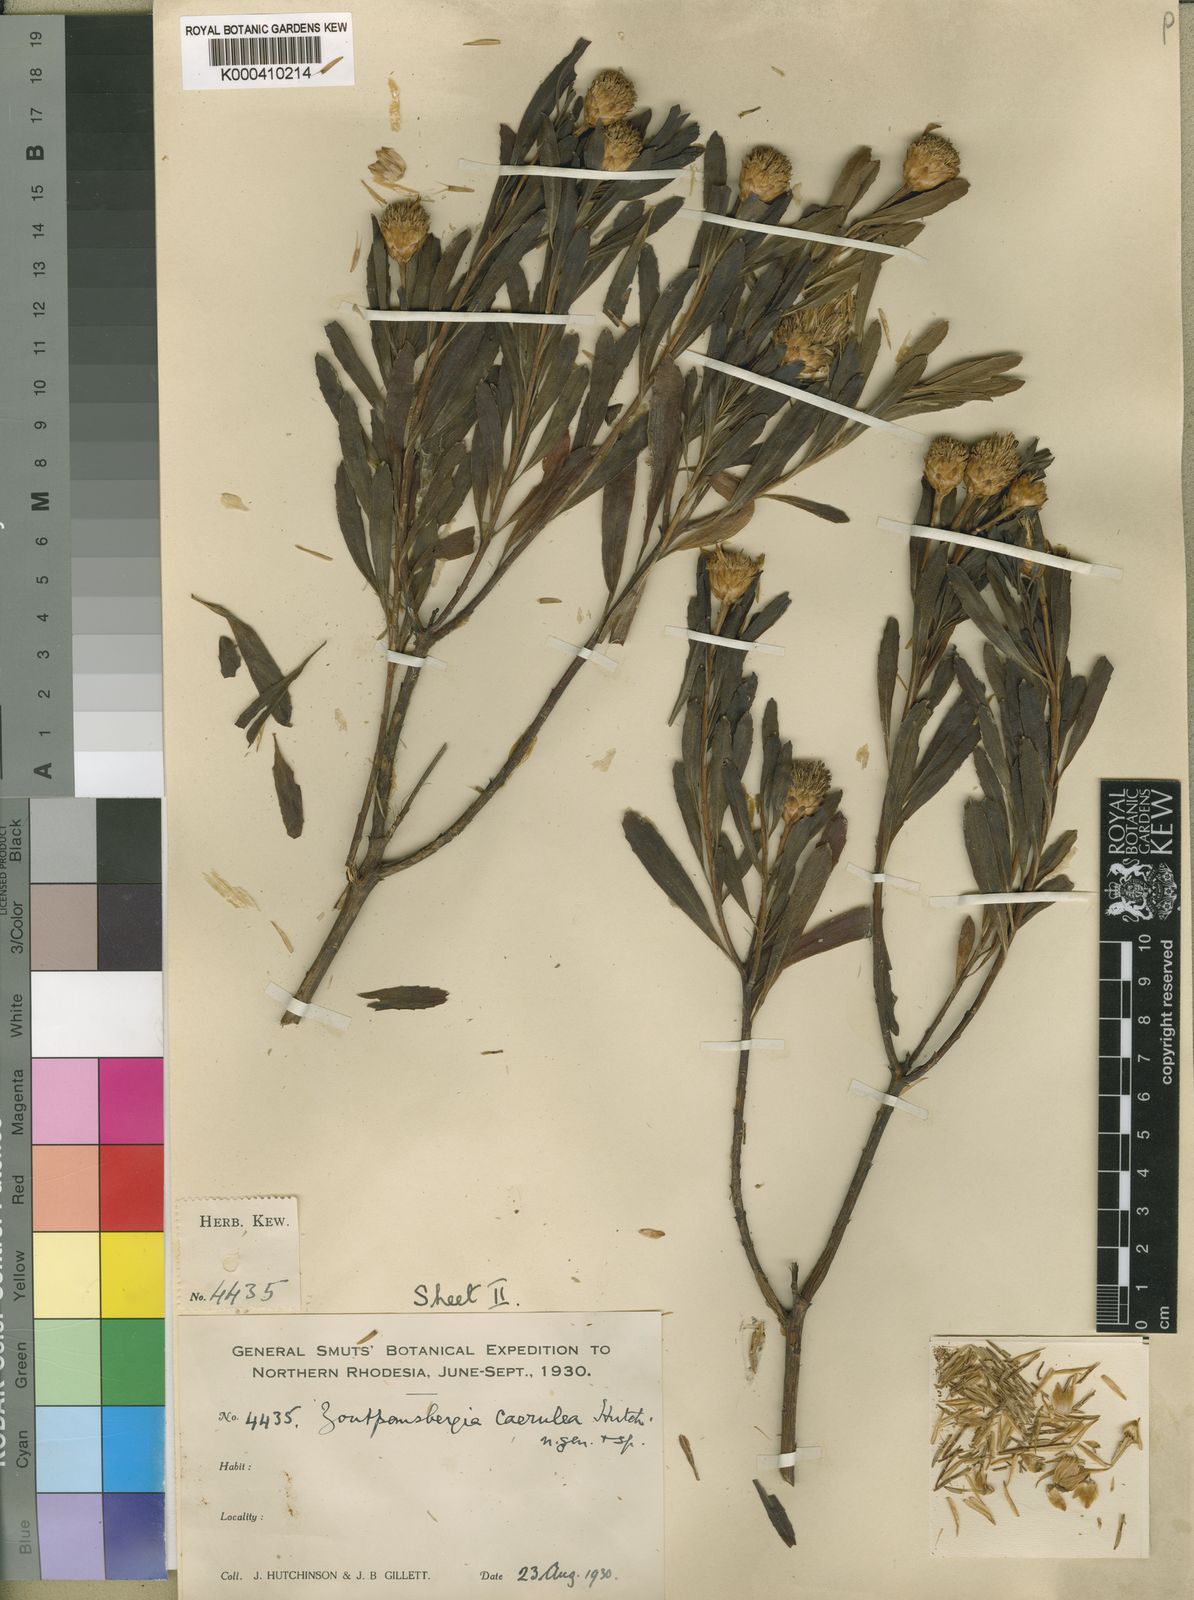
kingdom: Plantae
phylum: Tracheophyta
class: Magnoliopsida
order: Asterales
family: Asteraceae
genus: Callilepis
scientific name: Callilepis caerulea
